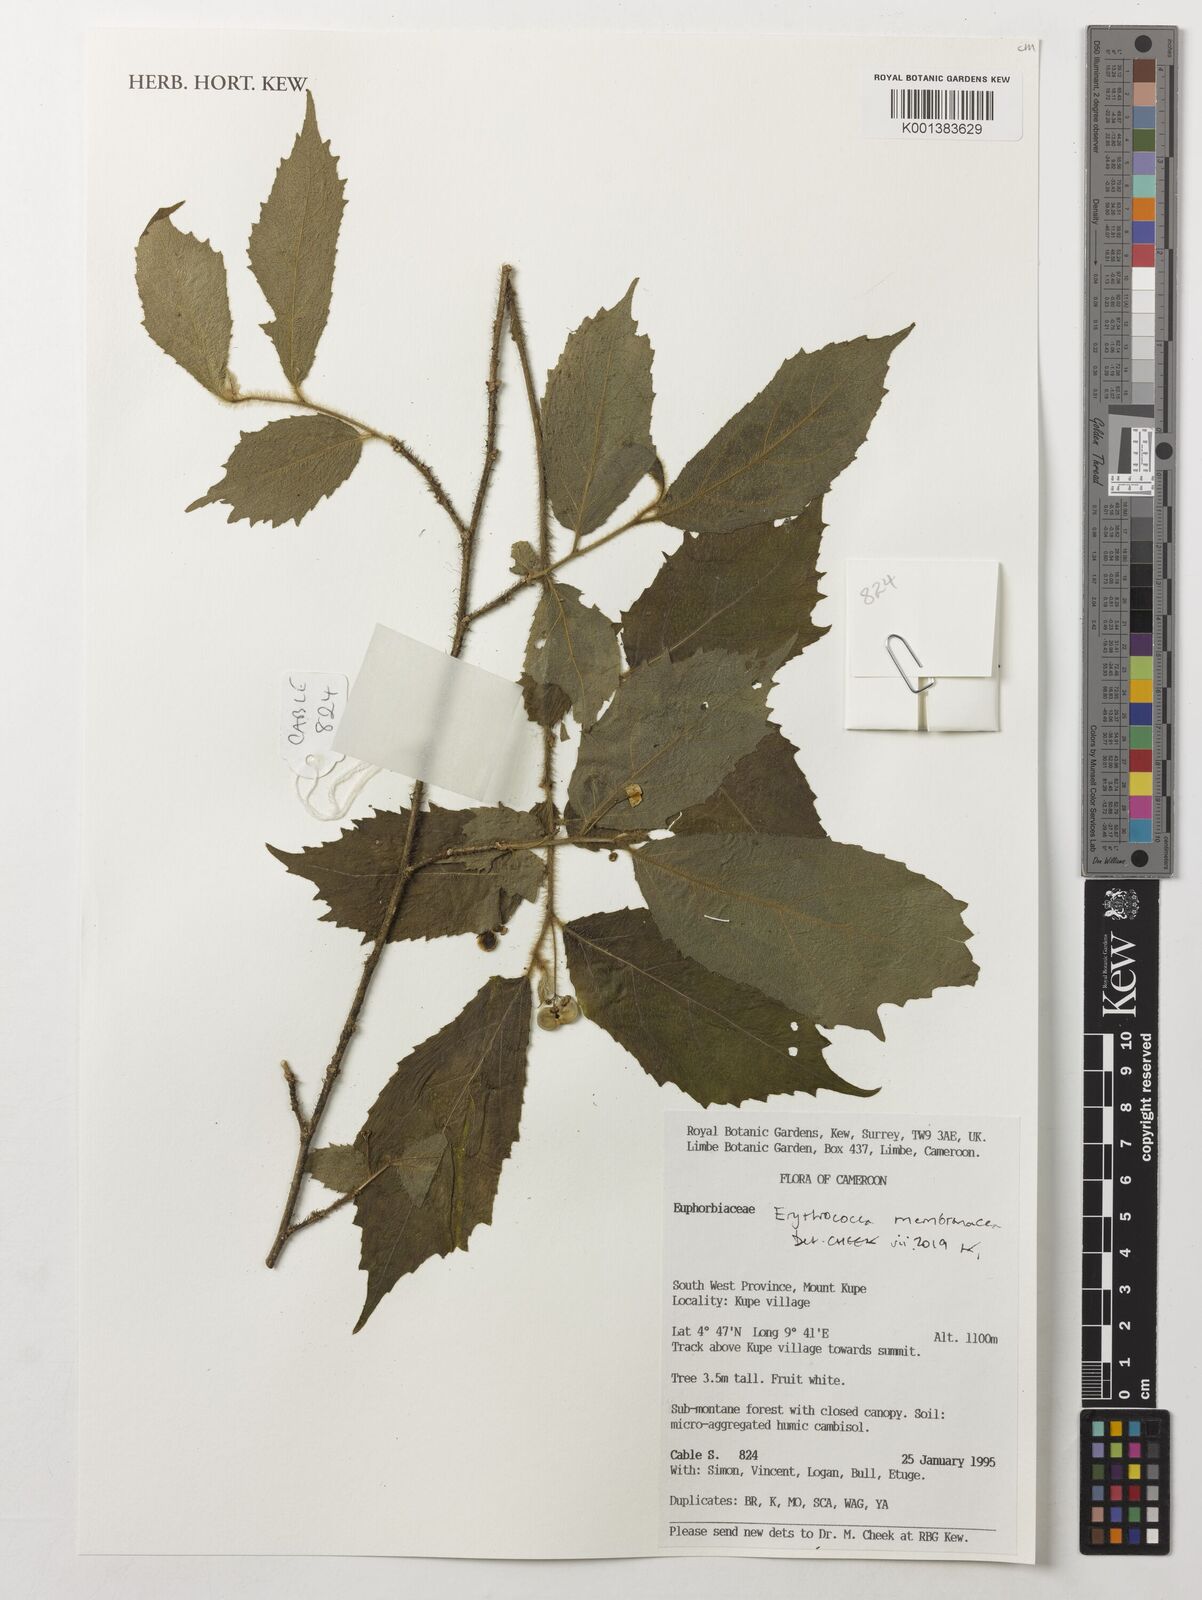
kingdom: Plantae
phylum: Tracheophyta
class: Magnoliopsida
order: Malpighiales
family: Euphorbiaceae
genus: Erythrococca
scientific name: Erythrococca membranacea
